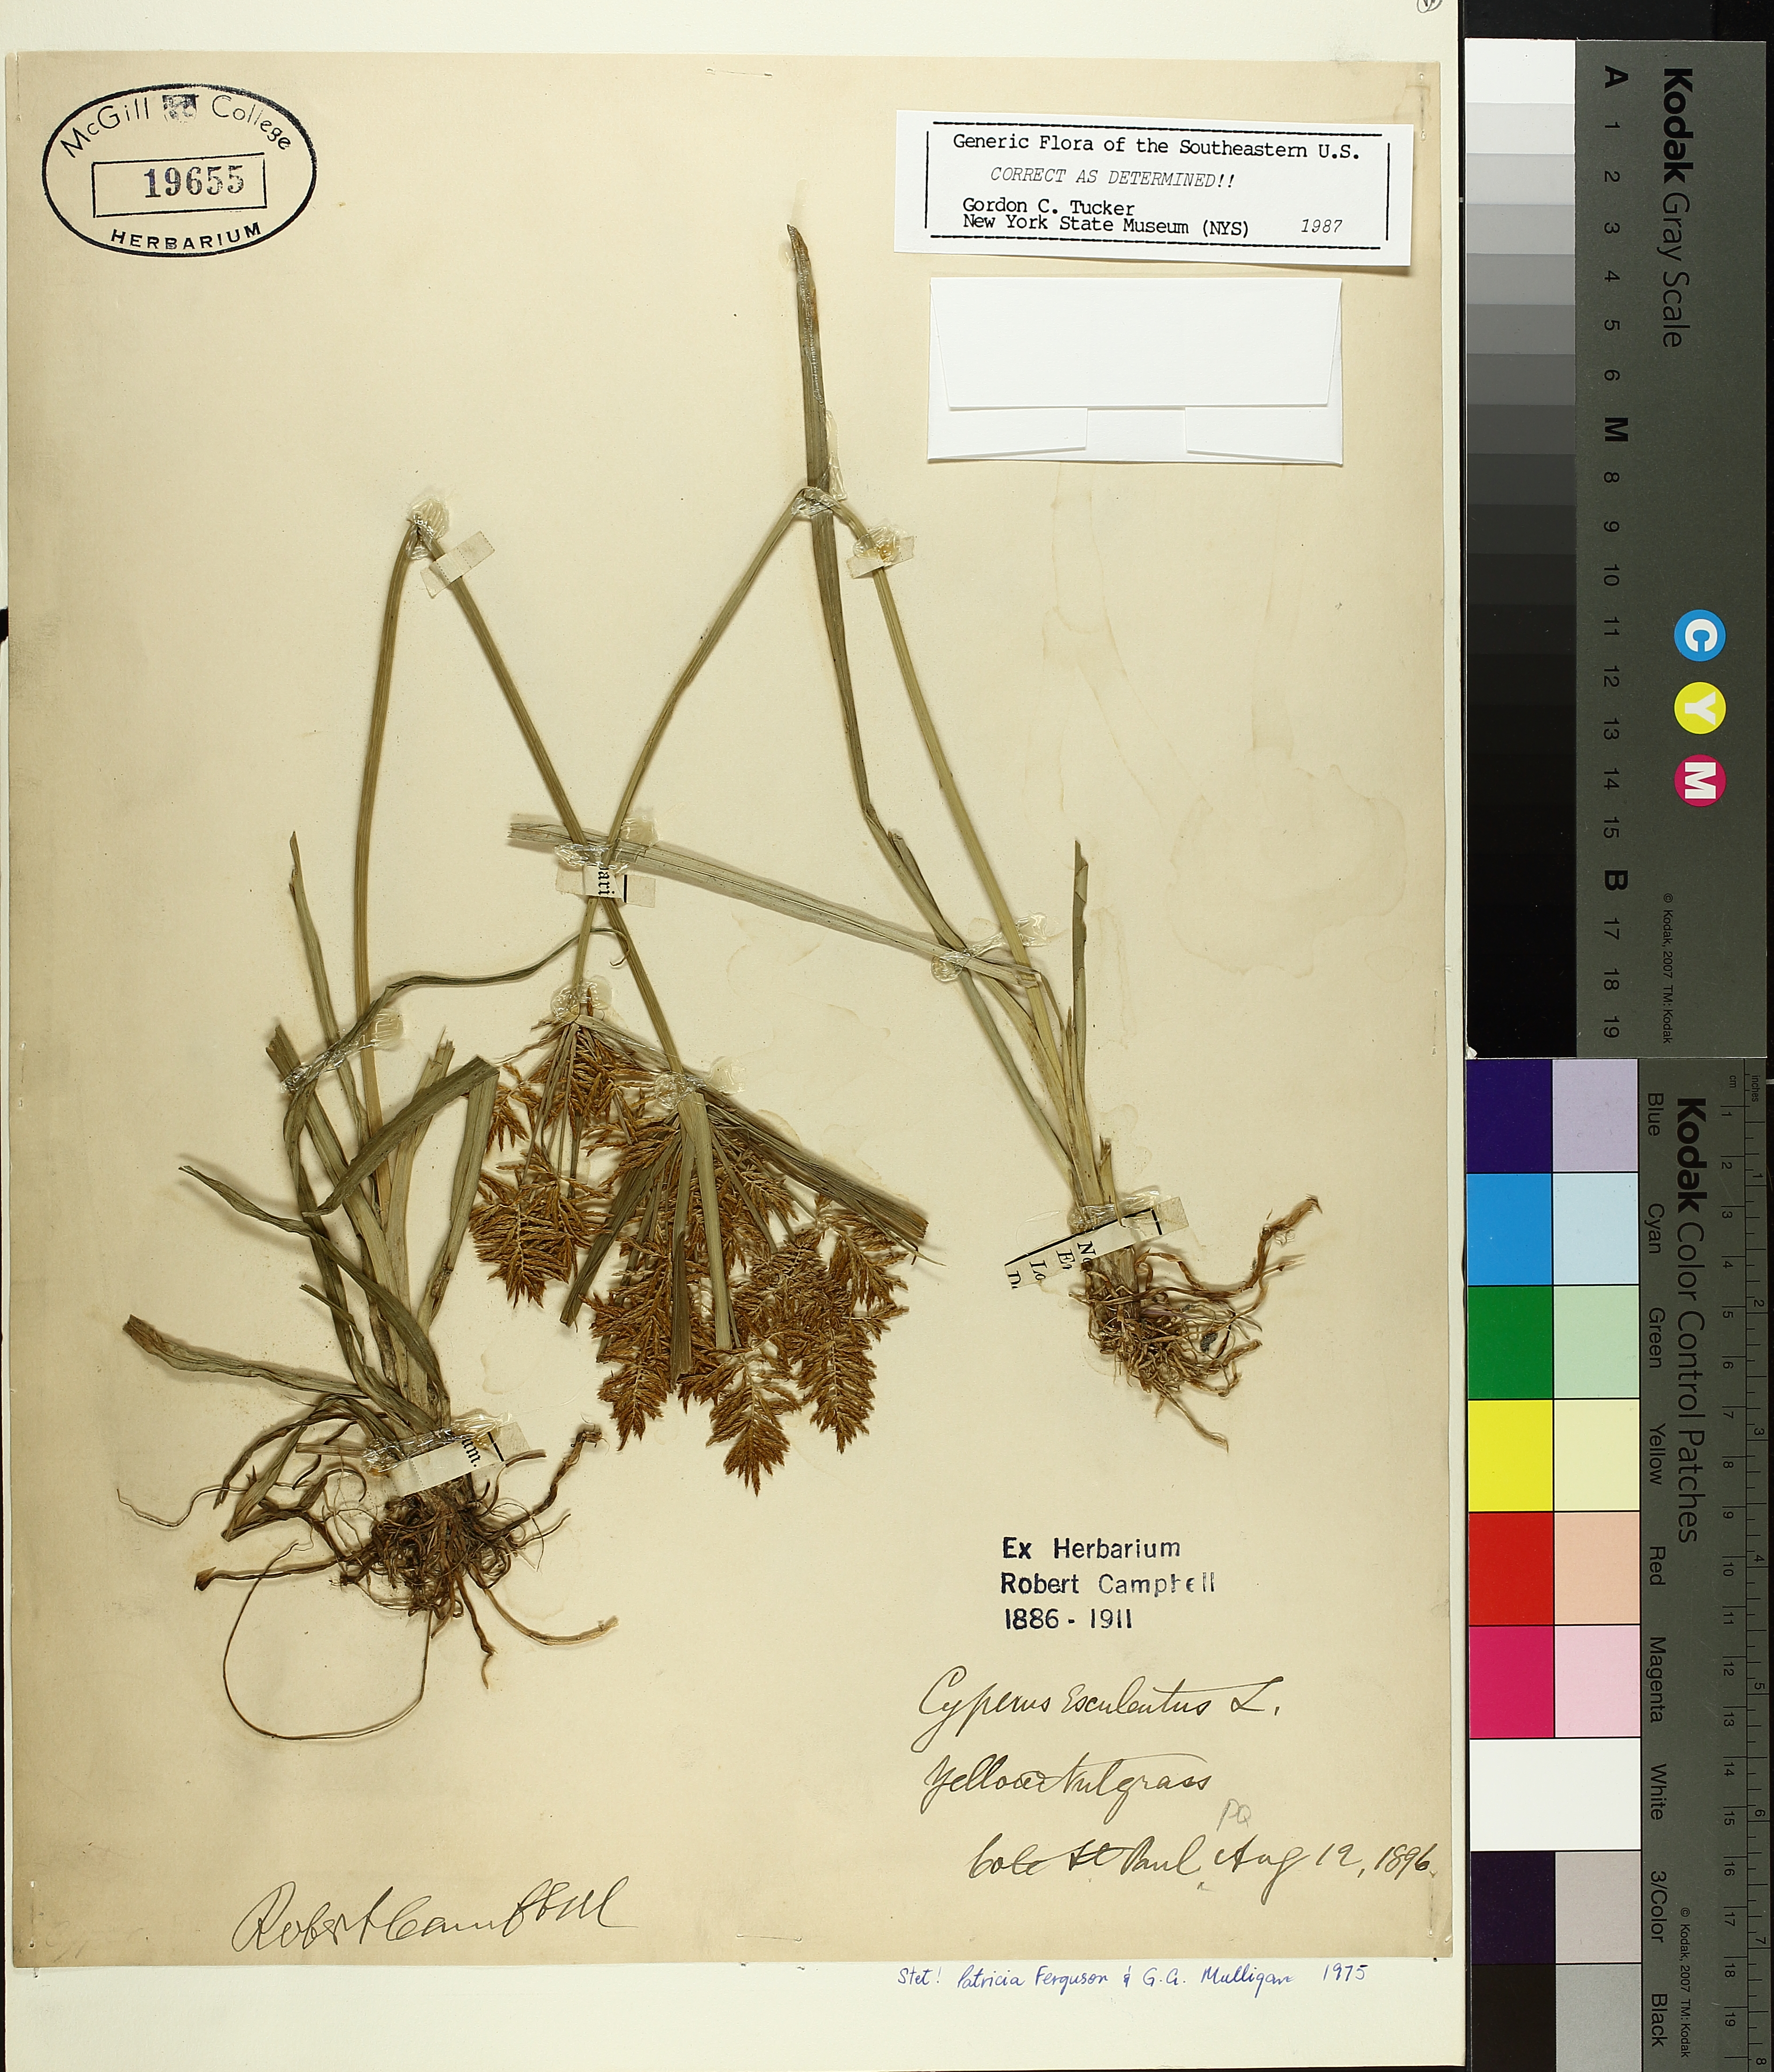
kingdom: Plantae
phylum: Tracheophyta
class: Liliopsida
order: Poales
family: Cyperaceae
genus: Cyperus
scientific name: Cyperus esculentus
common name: Yellow nutsedge
